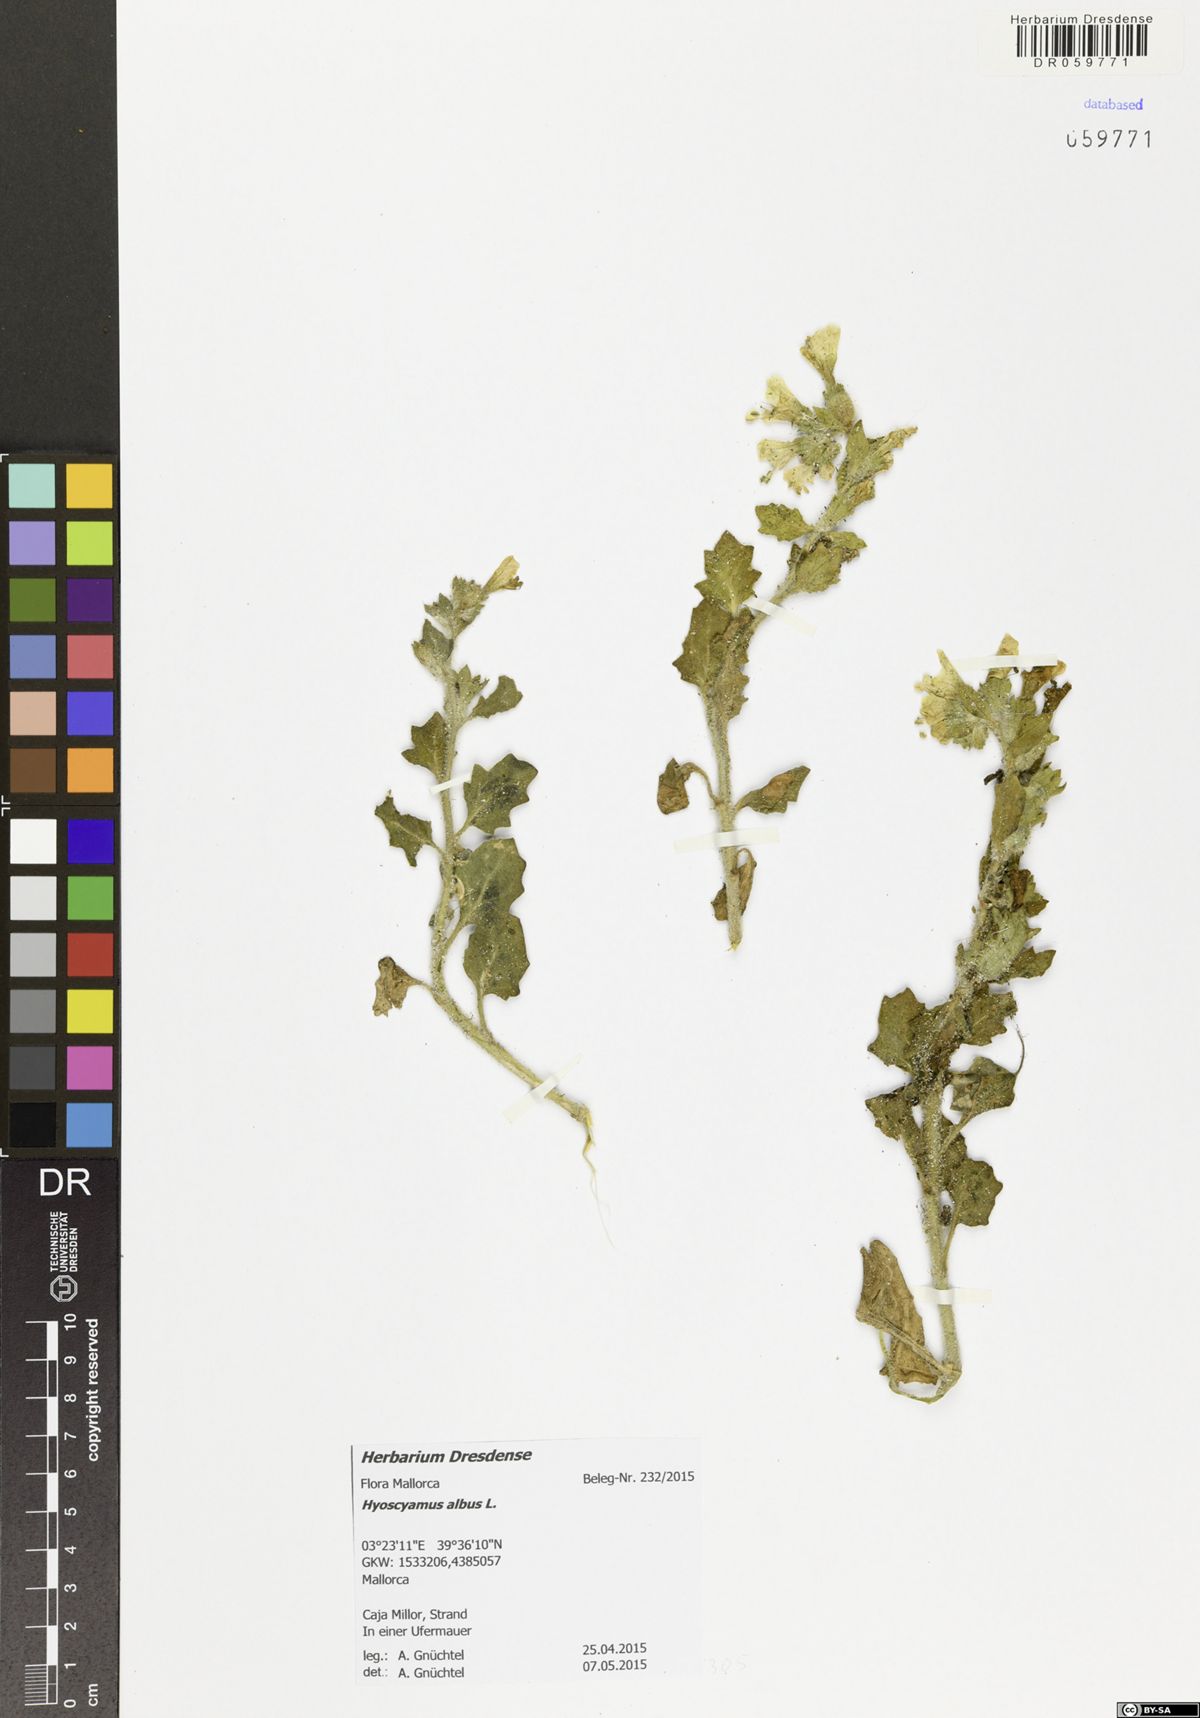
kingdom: Plantae
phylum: Tracheophyta
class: Magnoliopsida
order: Solanales
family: Solanaceae
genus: Hyoscyamus
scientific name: Hyoscyamus albus
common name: White henbane
